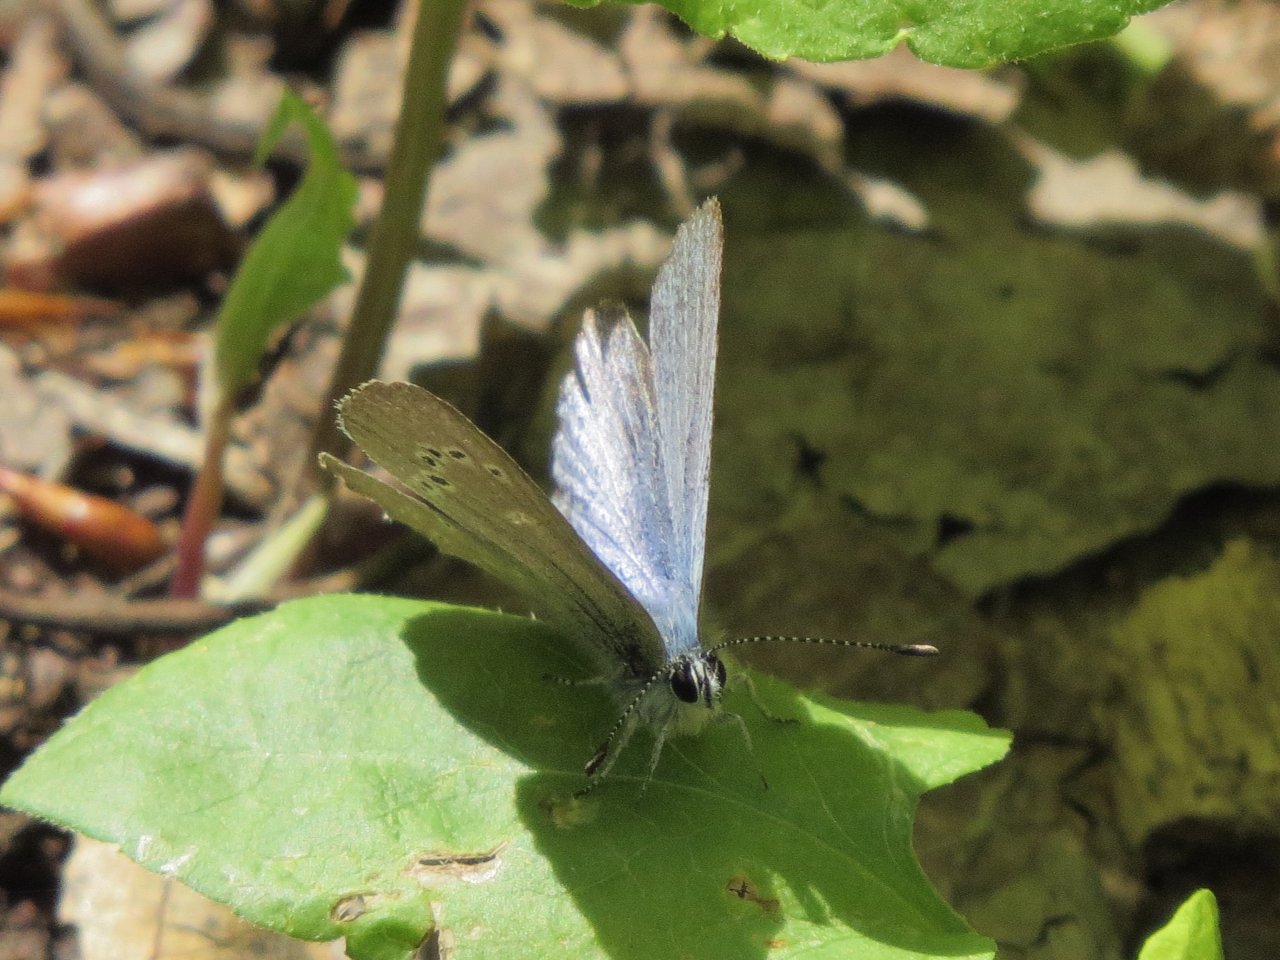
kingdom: Animalia
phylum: Arthropoda
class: Insecta
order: Lepidoptera
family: Lycaenidae
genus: Glaucopsyche
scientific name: Glaucopsyche lygdamus
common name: Silvery Blue
